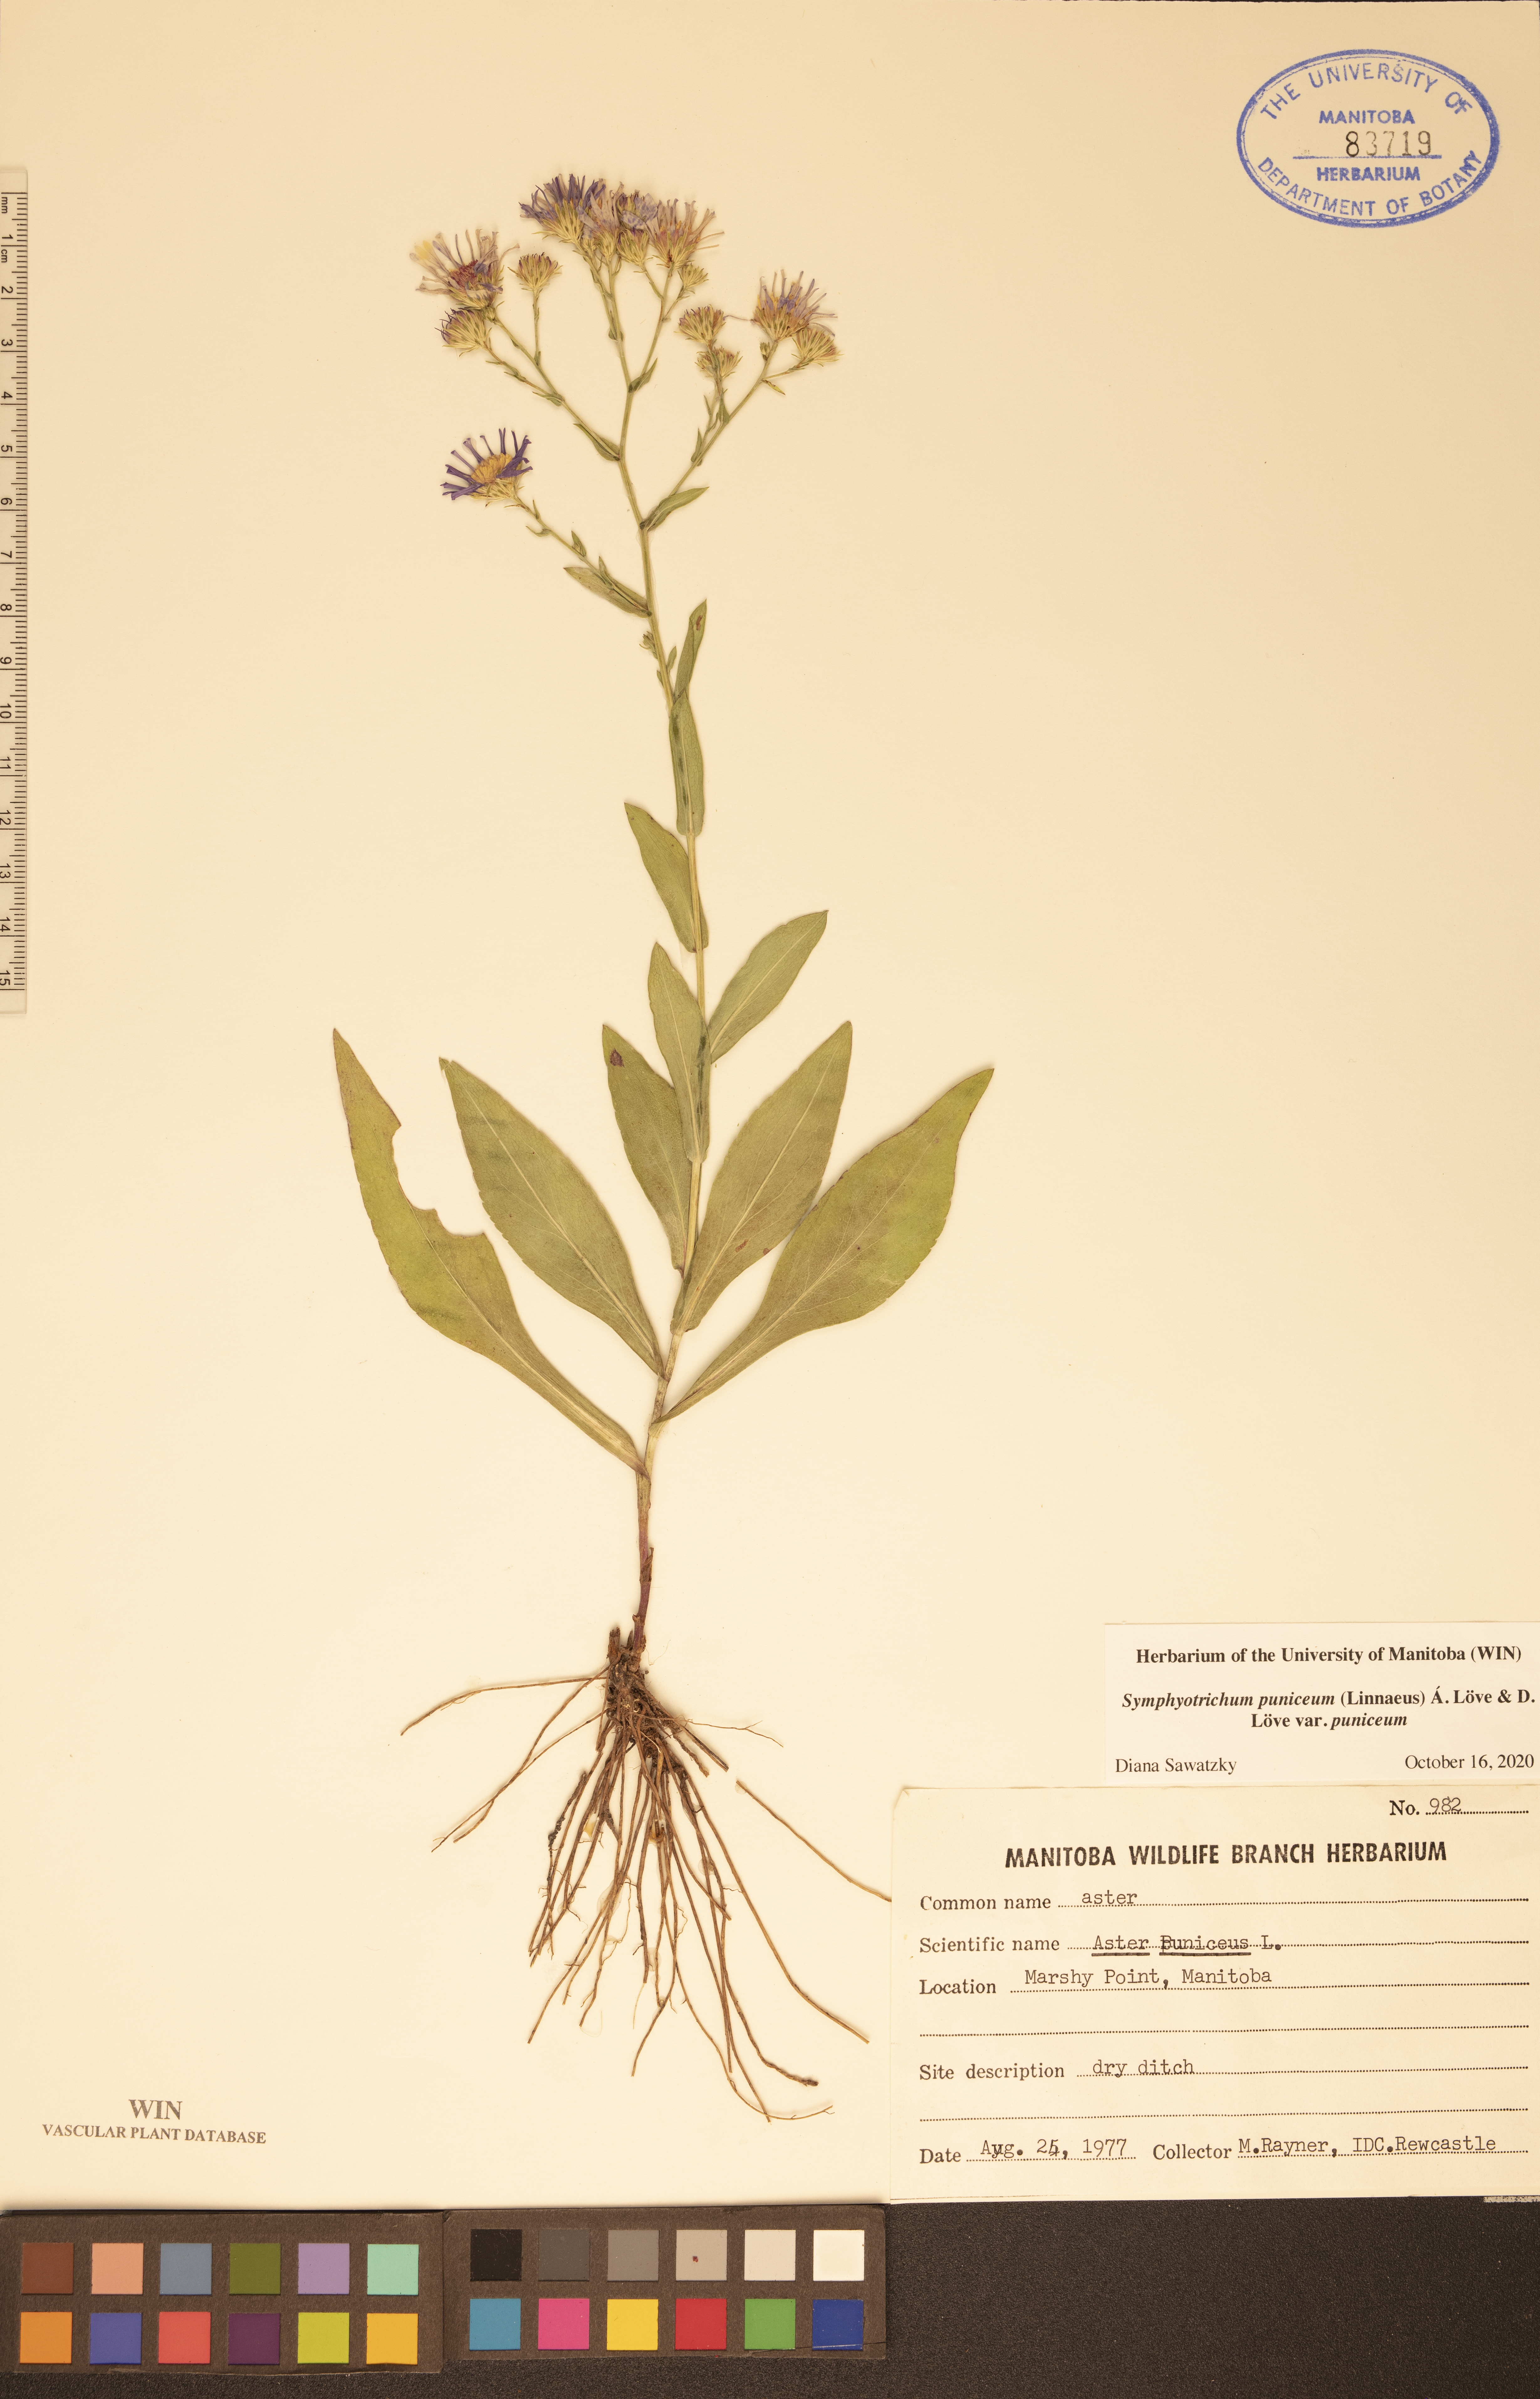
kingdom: Plantae
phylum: Tracheophyta
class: Magnoliopsida
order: Asterales
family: Asteraceae
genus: Symphyotrichum
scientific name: Symphyotrichum puniceum
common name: Bog aster
